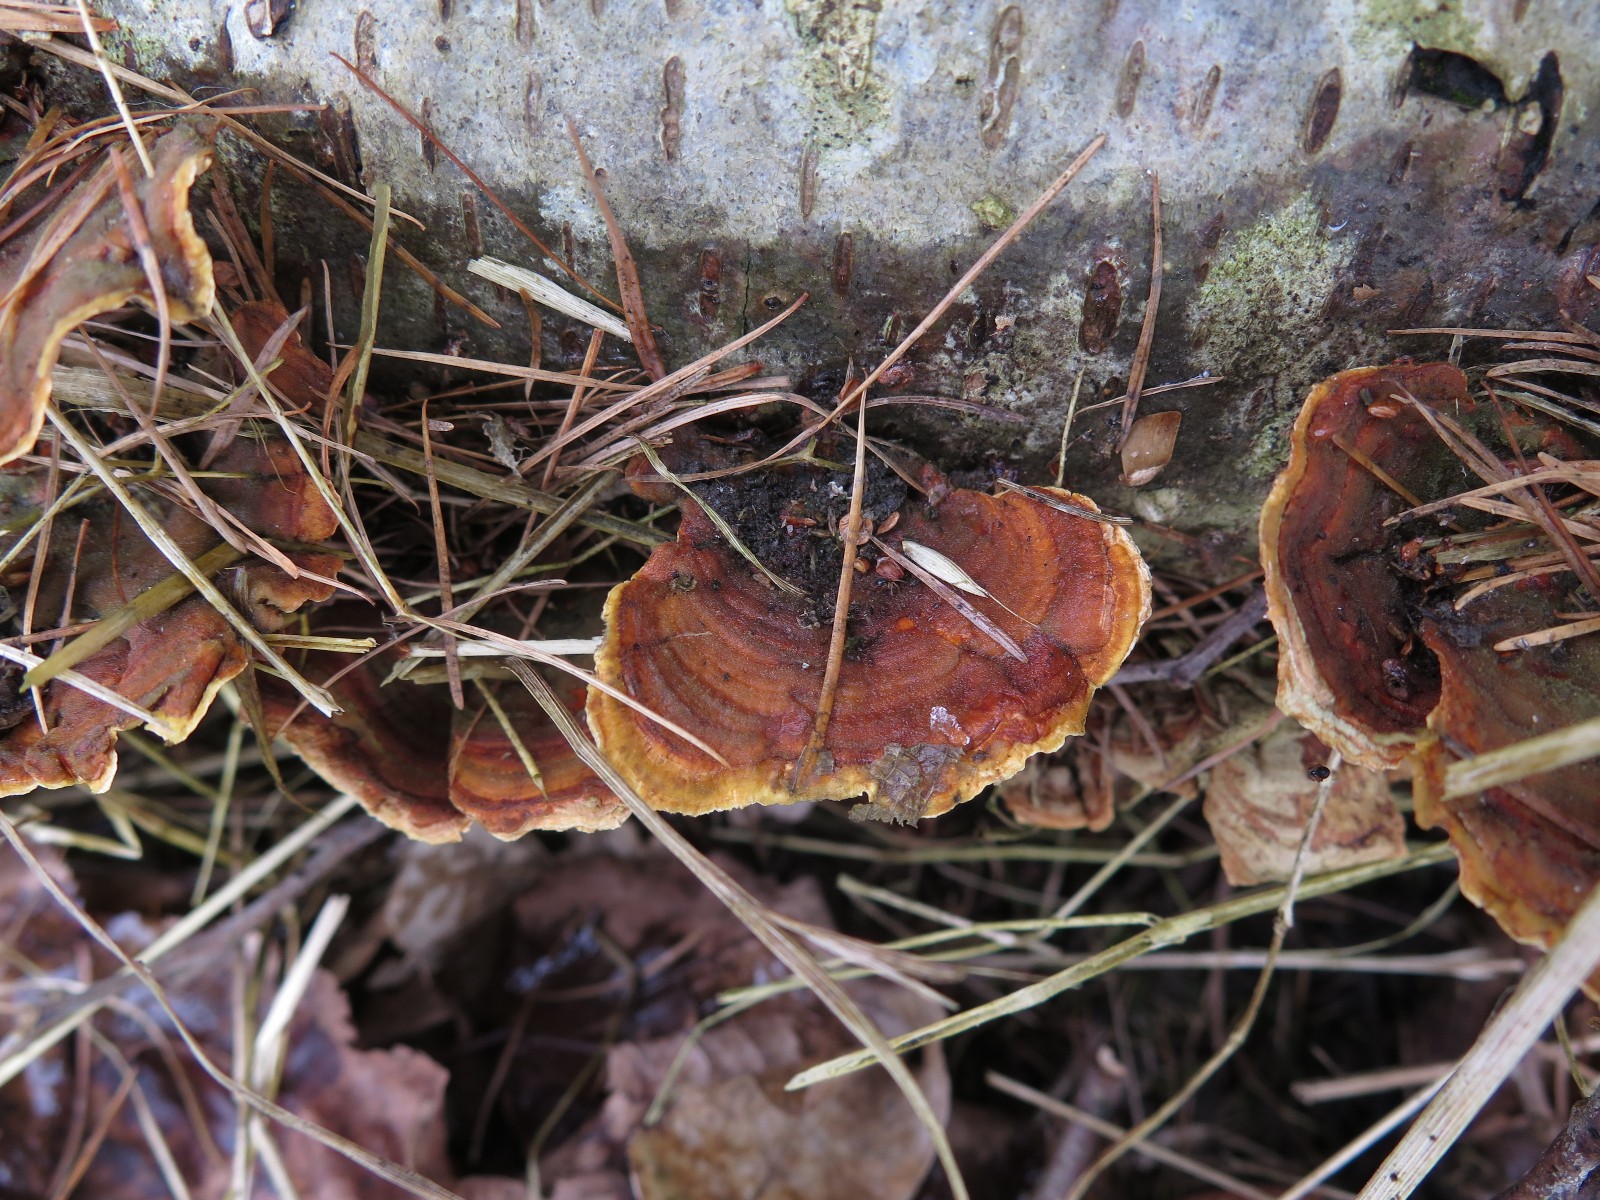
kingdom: Fungi
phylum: Basidiomycota
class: Agaricomycetes
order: Russulales
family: Stereaceae
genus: Stereum
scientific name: Stereum subtomentosum
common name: smuk lædersvamp
